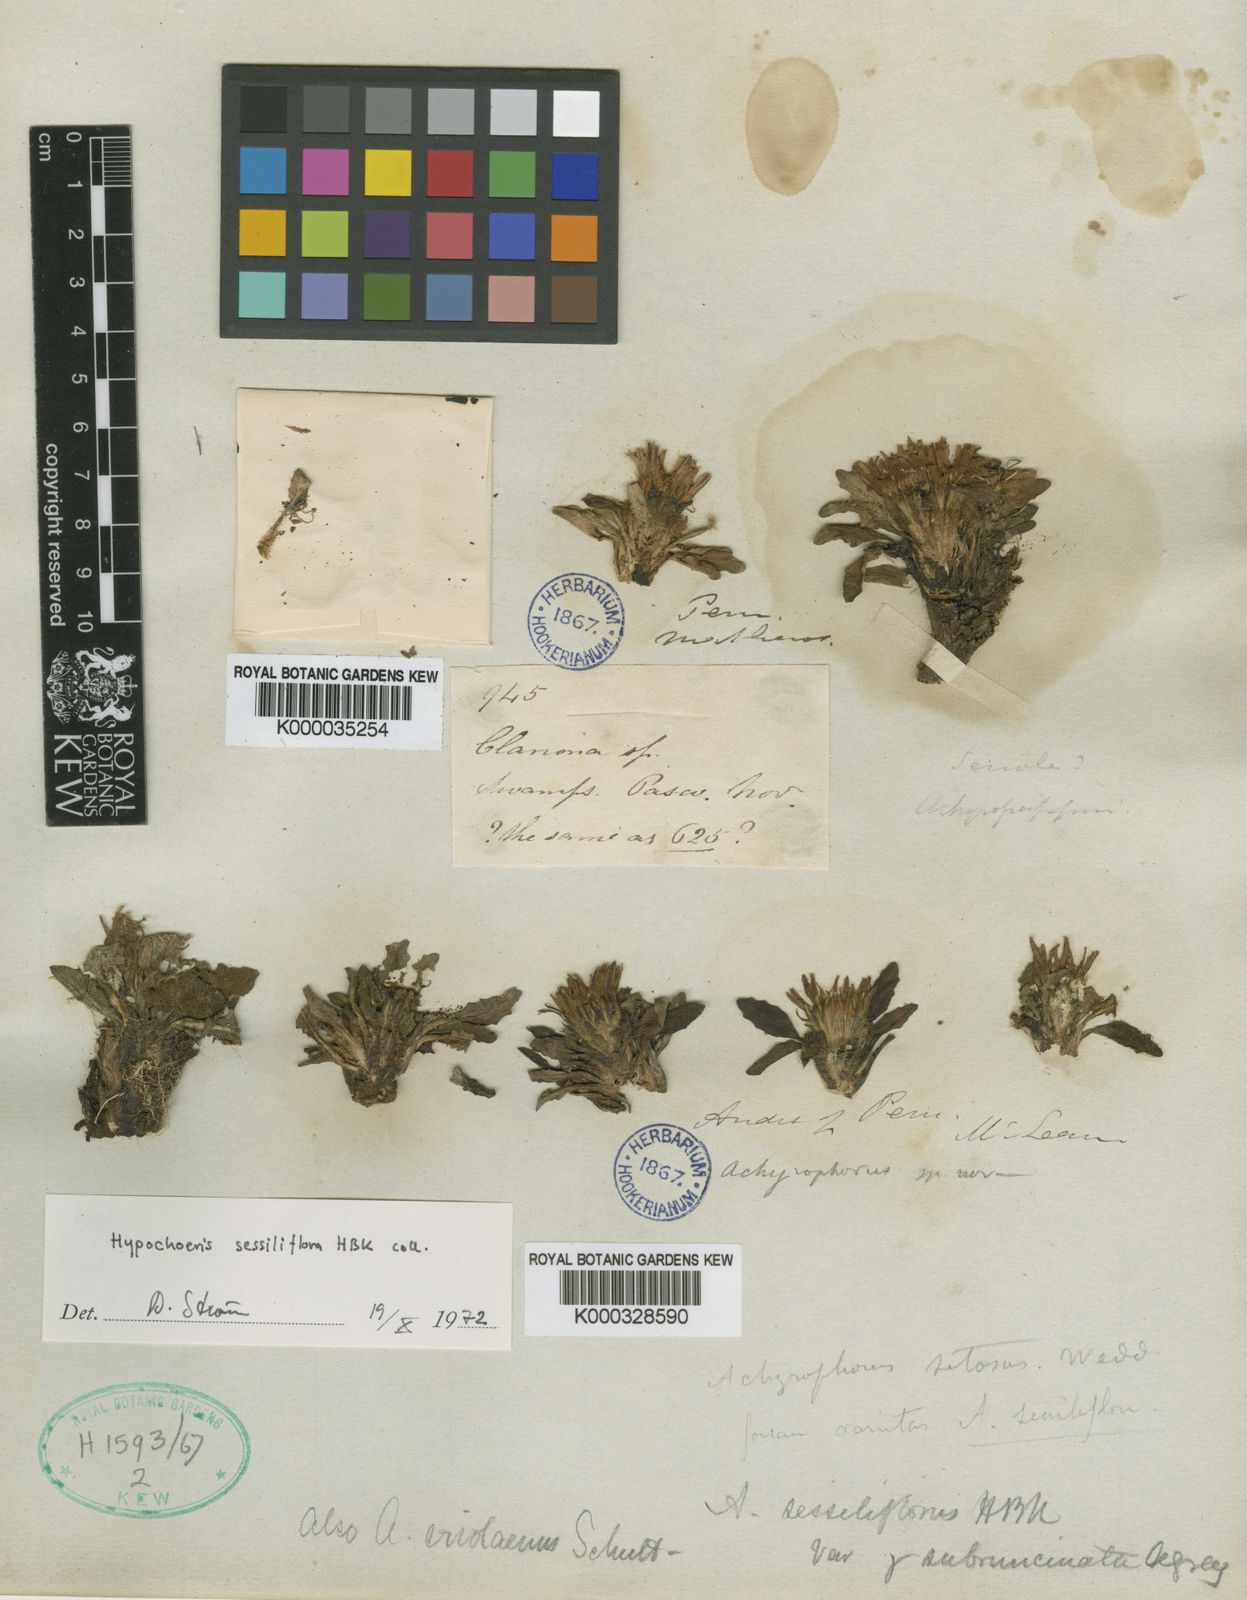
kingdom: Plantae
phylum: Tracheophyta
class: Magnoliopsida
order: Asterales
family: Asteraceae
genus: Hypochaeris
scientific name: Hypochaeris echegarayi
